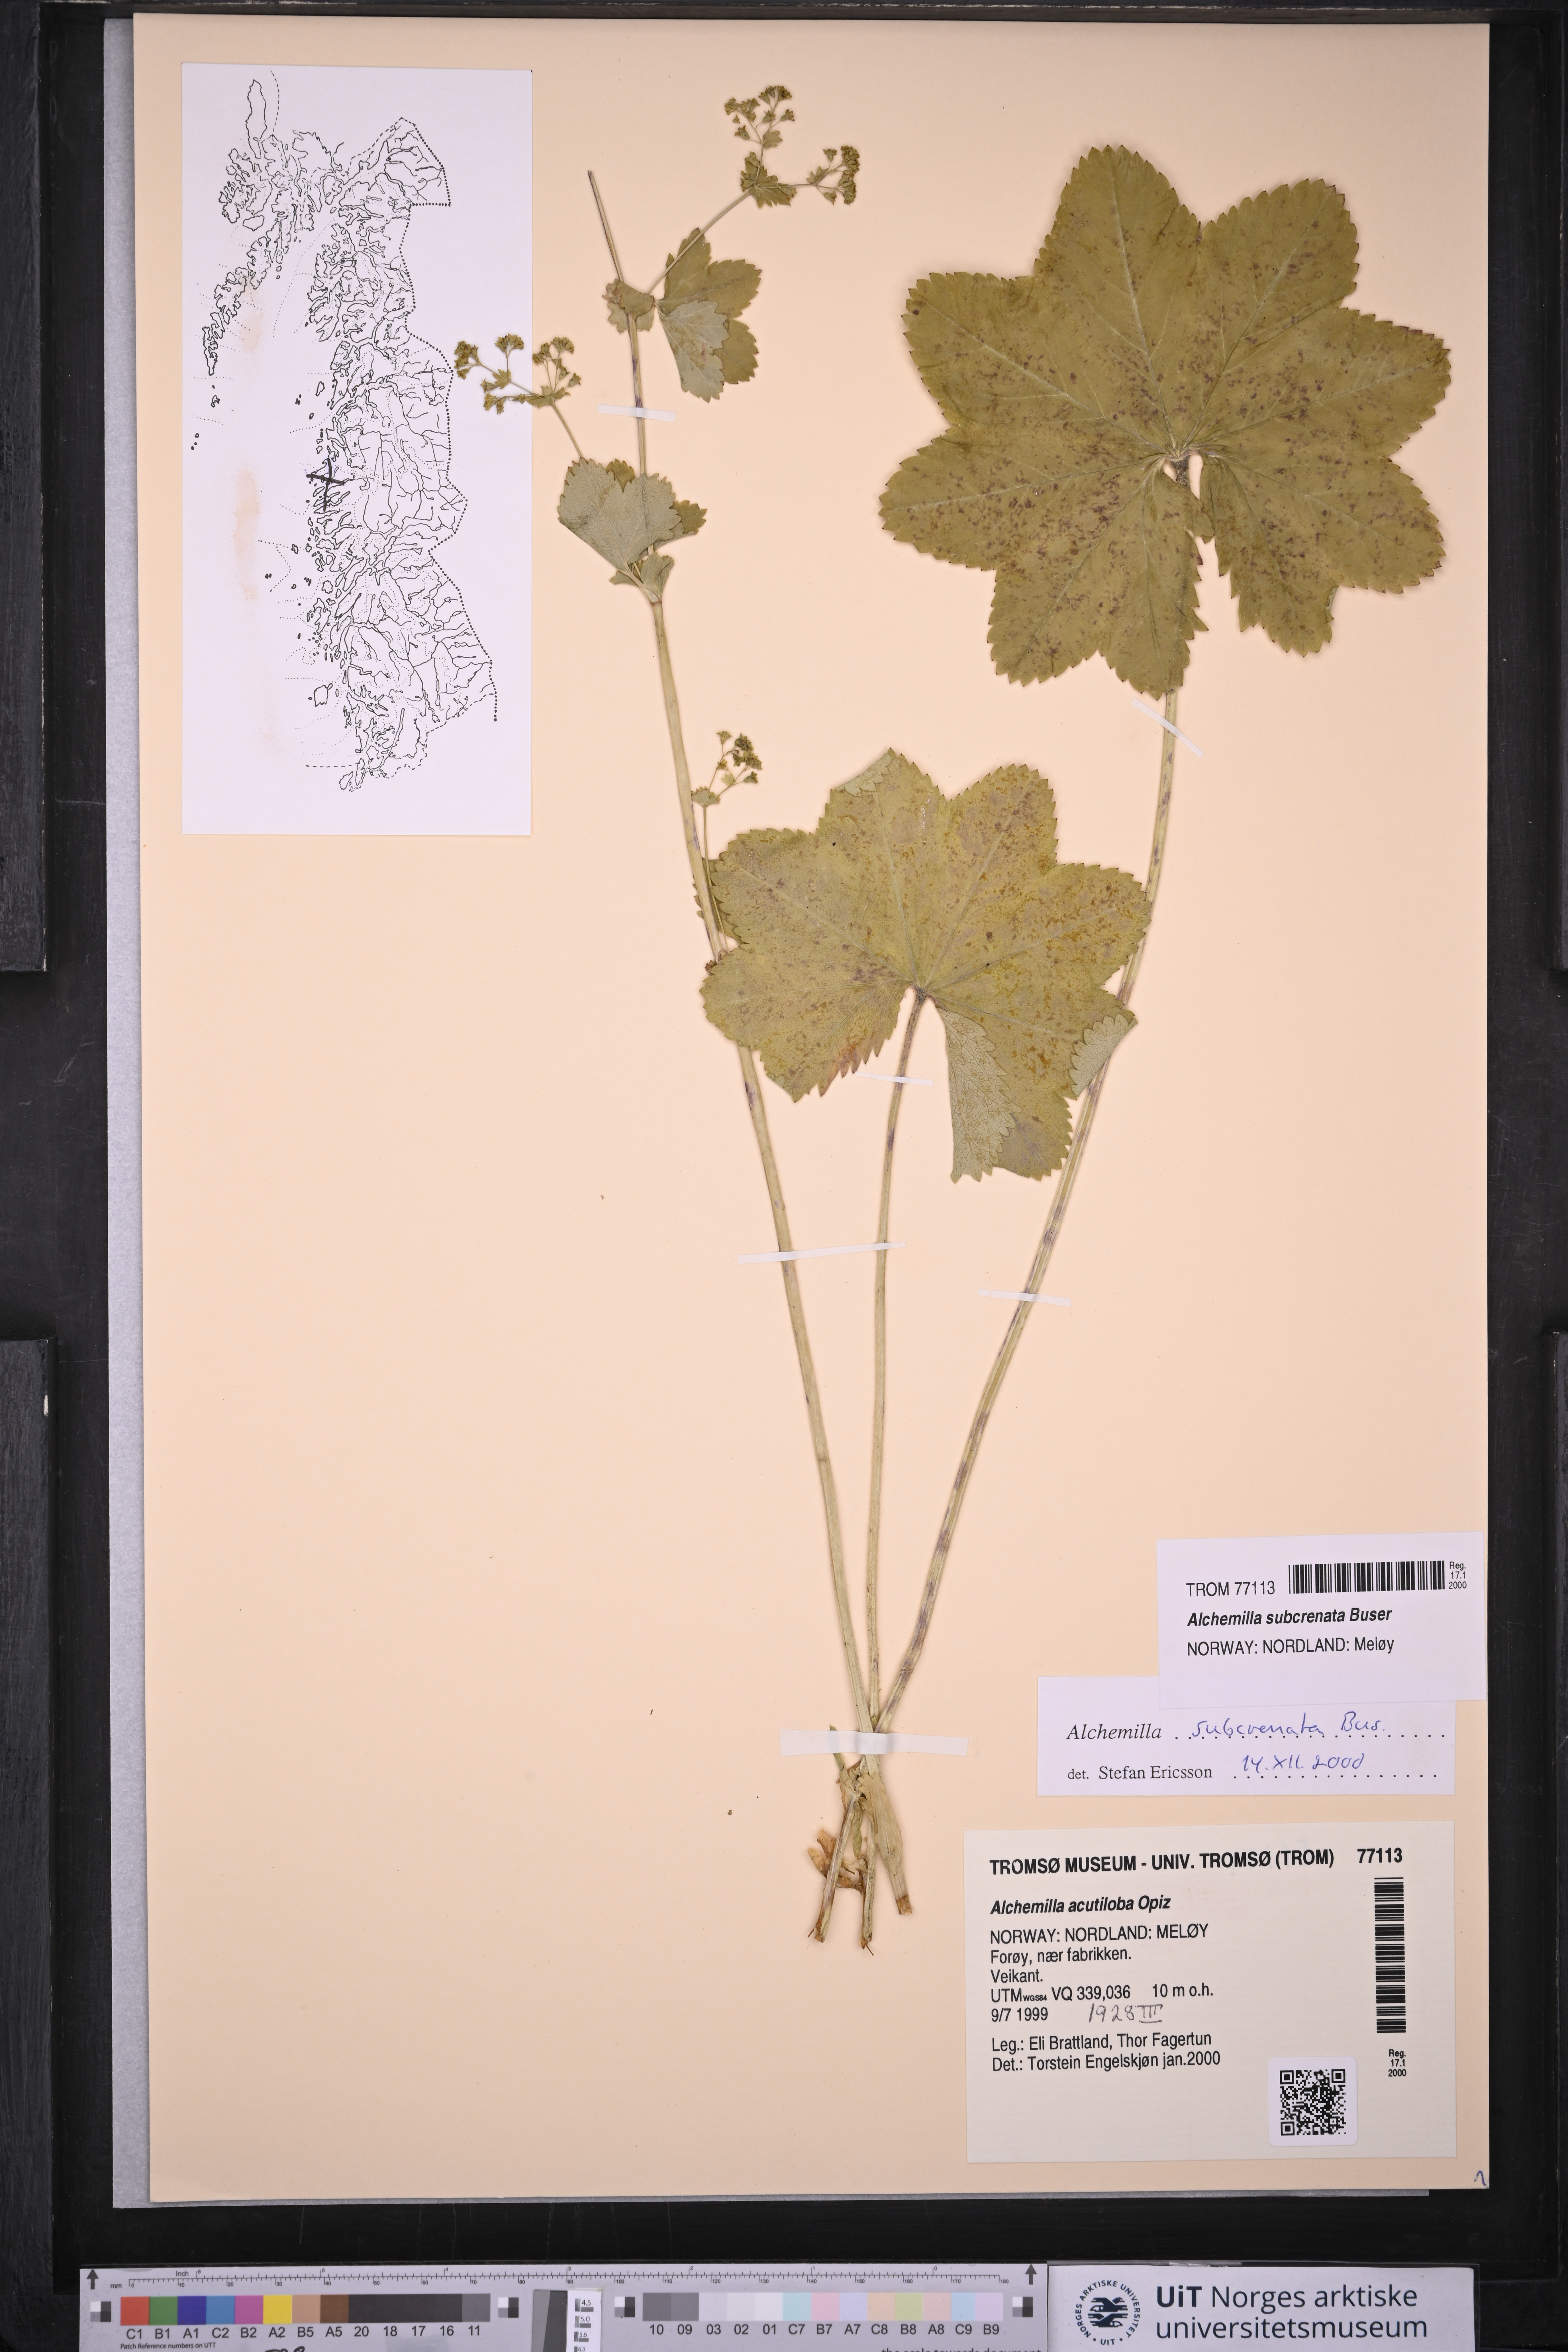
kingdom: Plantae
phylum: Tracheophyta
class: Magnoliopsida
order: Rosales
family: Rosaceae
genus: Alchemilla
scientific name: Alchemilla subcrenata
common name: Broadtooth lady's mantle
